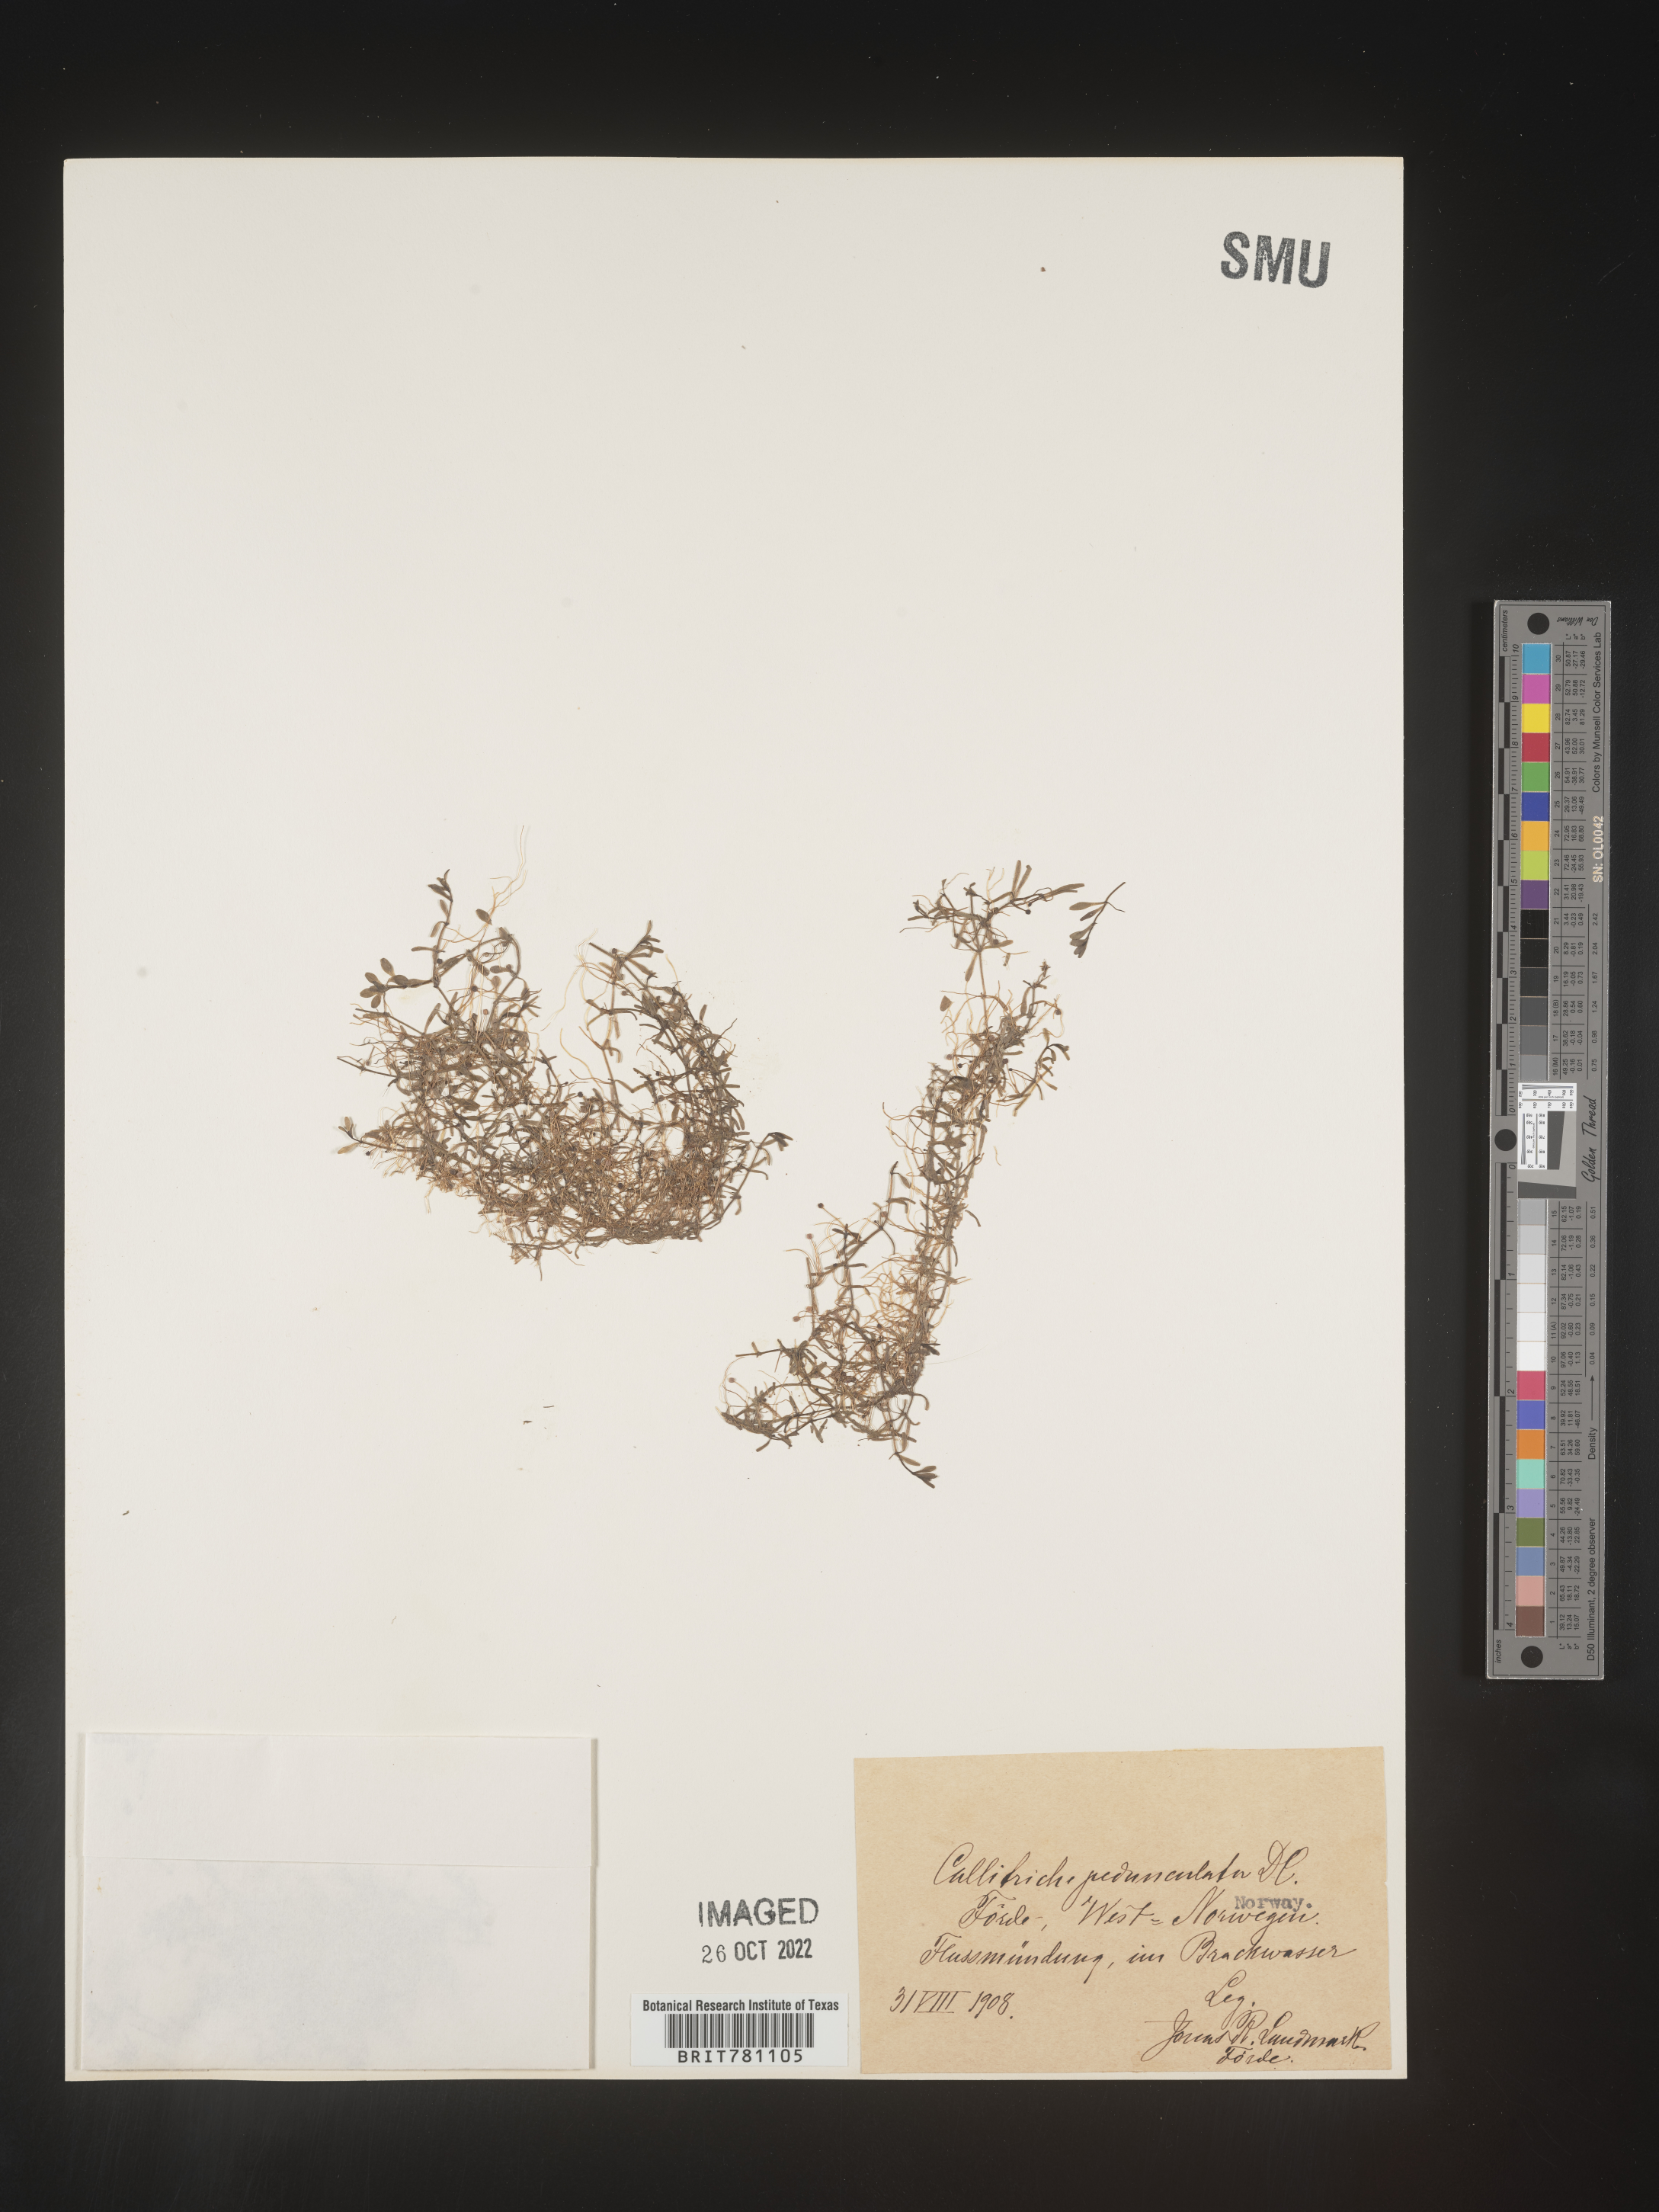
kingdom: Plantae
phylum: Tracheophyta
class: Magnoliopsida
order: Lamiales
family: Plantaginaceae
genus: Callitriche
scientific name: Callitriche
